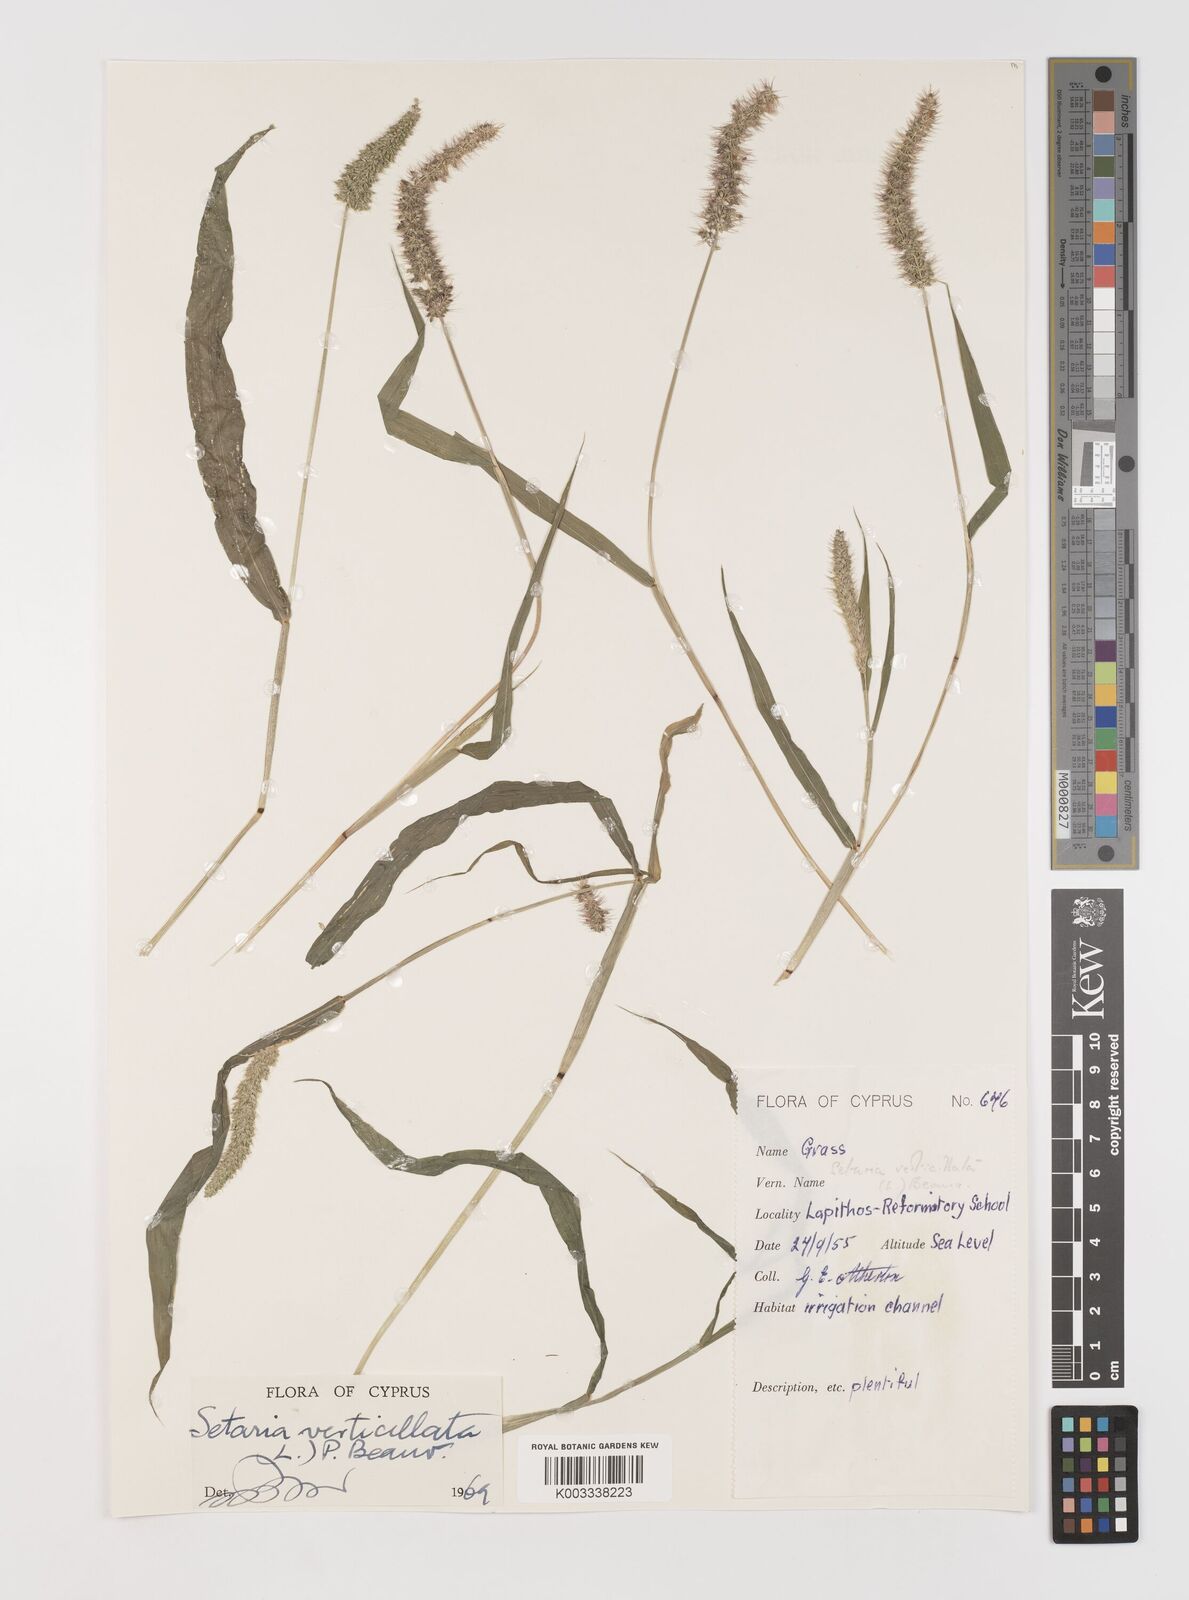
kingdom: Plantae
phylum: Tracheophyta
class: Liliopsida
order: Poales
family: Poaceae
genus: Setaria
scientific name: Setaria verticillata
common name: Hooked bristlegrass
